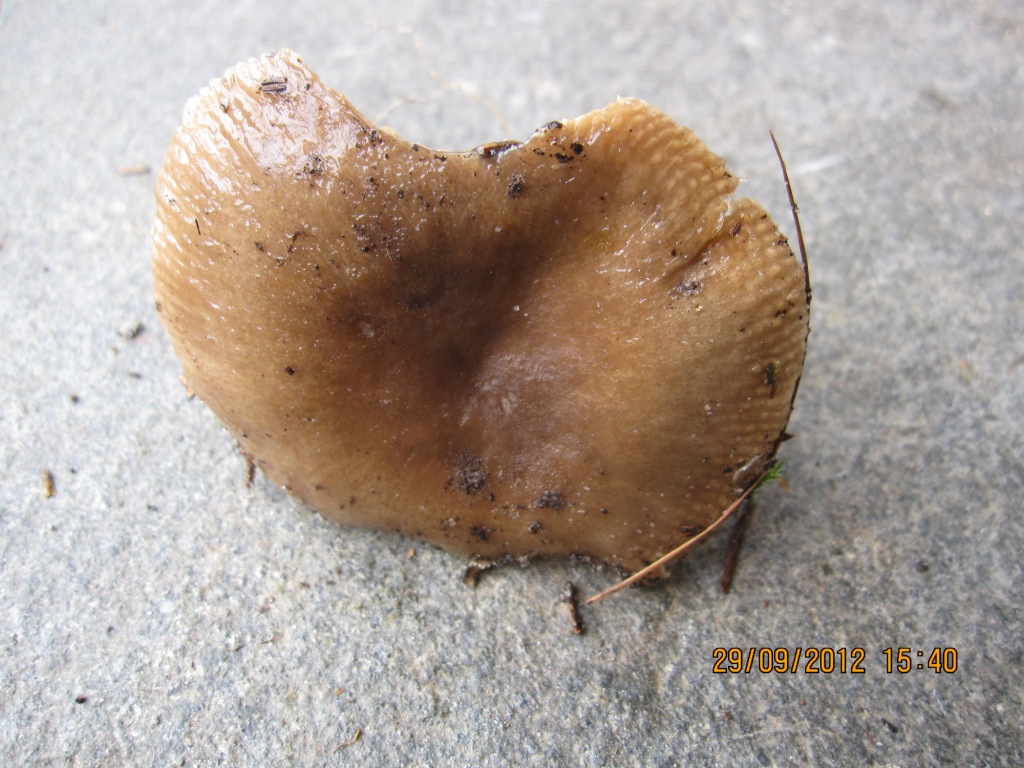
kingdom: Fungi
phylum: Basidiomycota
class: Agaricomycetes
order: Russulales
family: Russulaceae
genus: Russula
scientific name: Russula amoenolens
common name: skarp kam-skørhat
